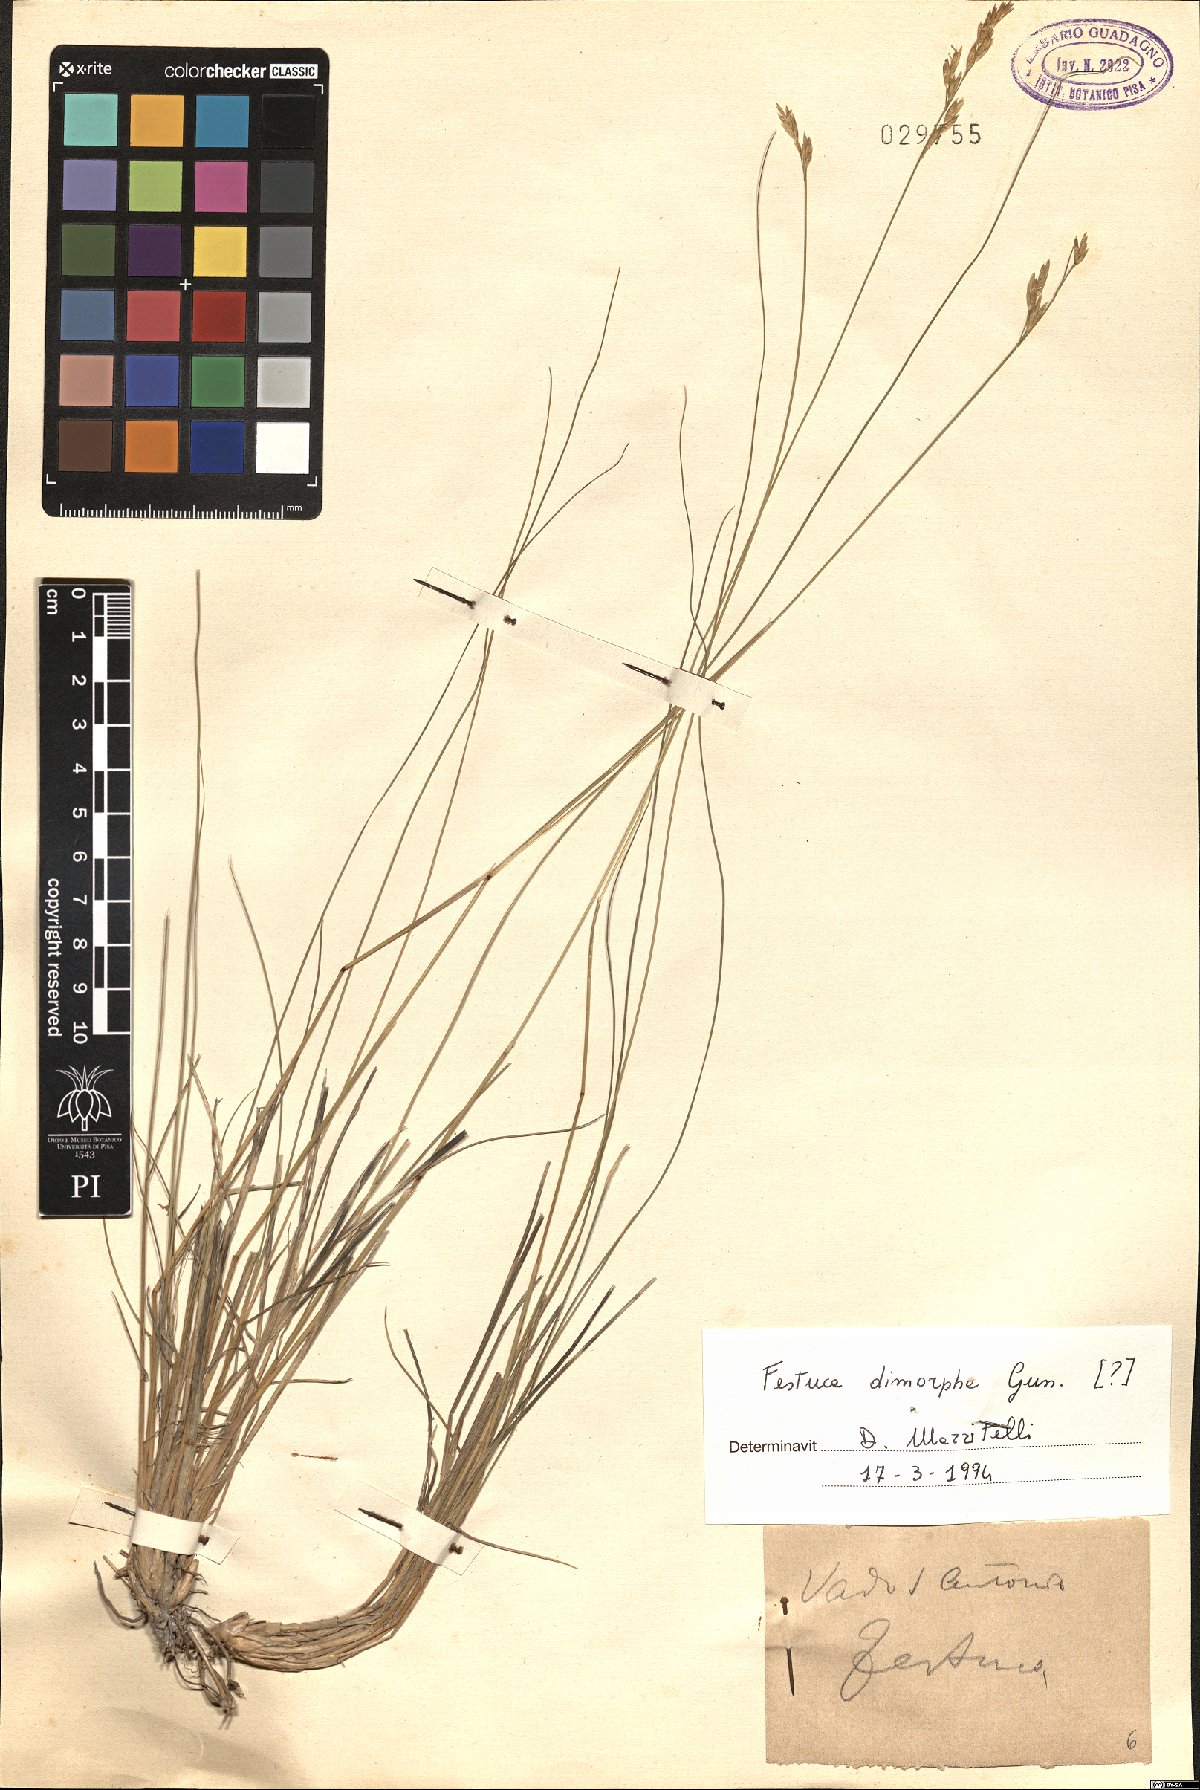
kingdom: Plantae
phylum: Tracheophyta
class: Liliopsida
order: Poales
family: Poaceae
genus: Festuca
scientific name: Festuca dimorpha
